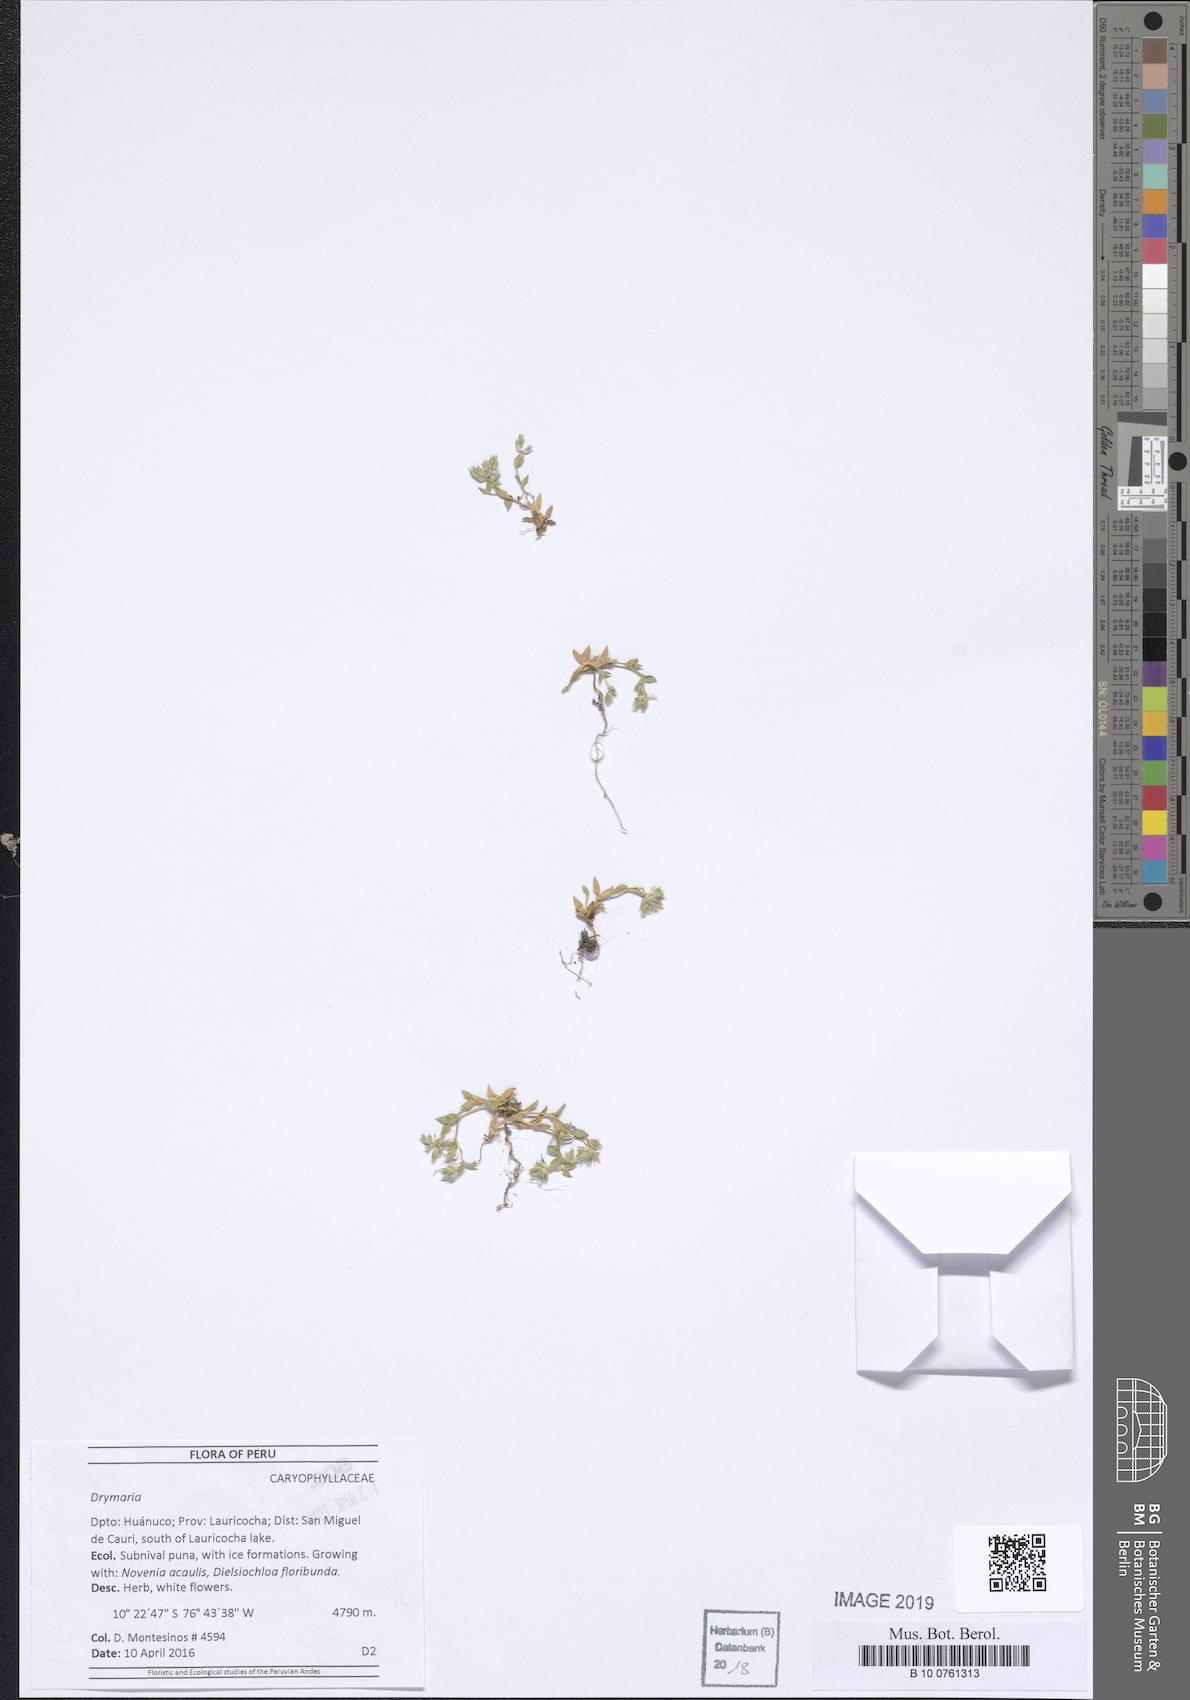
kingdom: Plantae
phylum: Tracheophyta
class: Magnoliopsida
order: Caryophyllales
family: Caryophyllaceae
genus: Drymaria
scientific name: Drymaria
